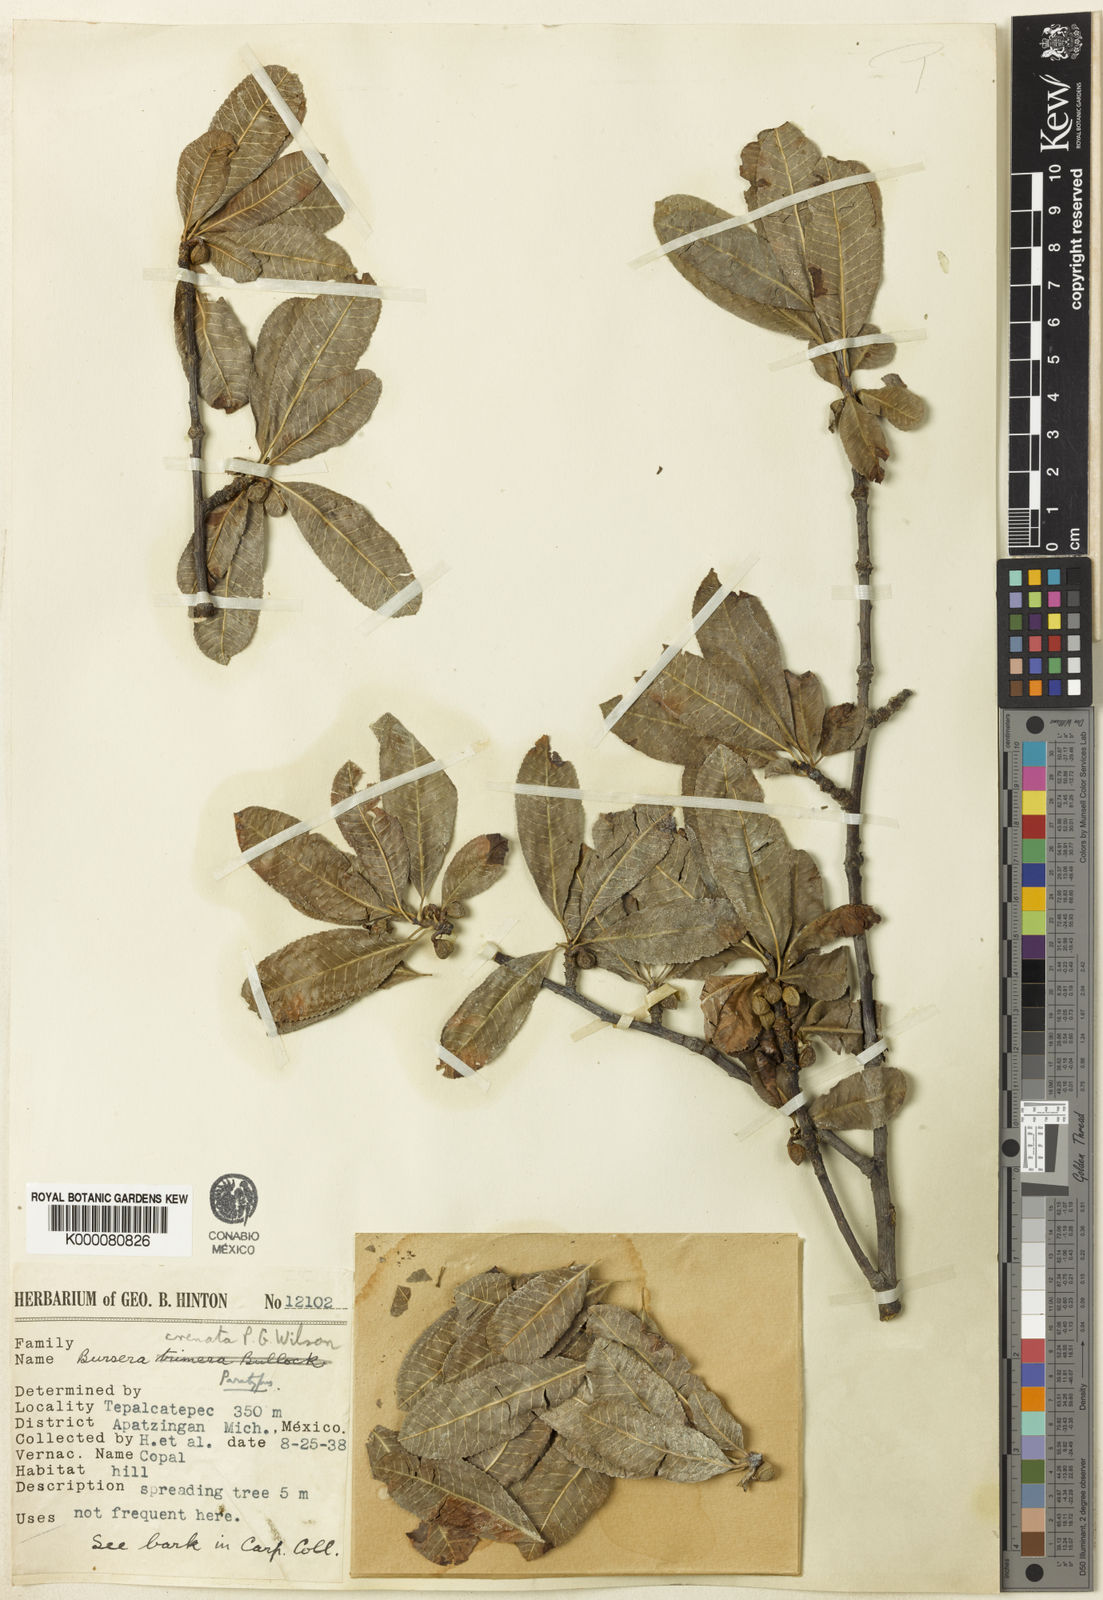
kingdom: Plantae
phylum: Tracheophyta
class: Magnoliopsida
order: Sapindales
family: Burseraceae
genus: Bursera
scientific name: Bursera crenata
